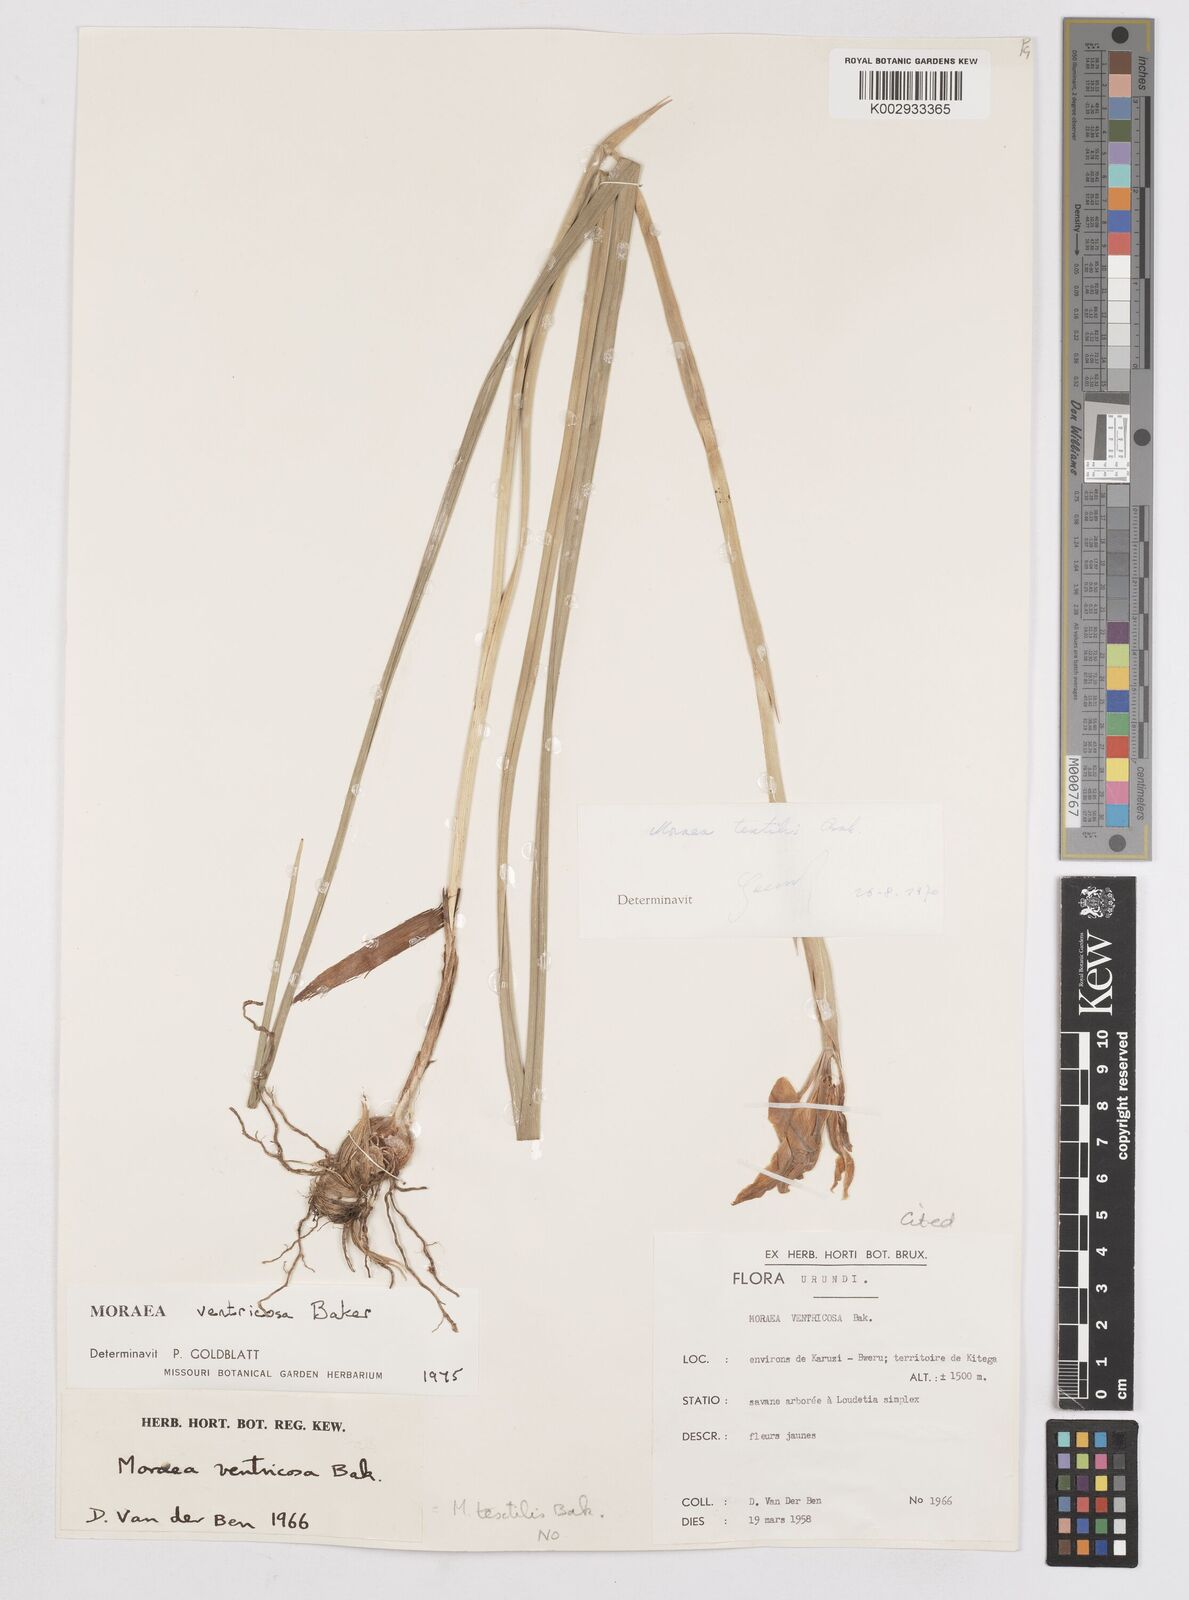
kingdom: Plantae
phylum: Tracheophyta
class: Liliopsida
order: Asparagales
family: Iridaceae
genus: Moraea
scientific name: Moraea ventricosa
